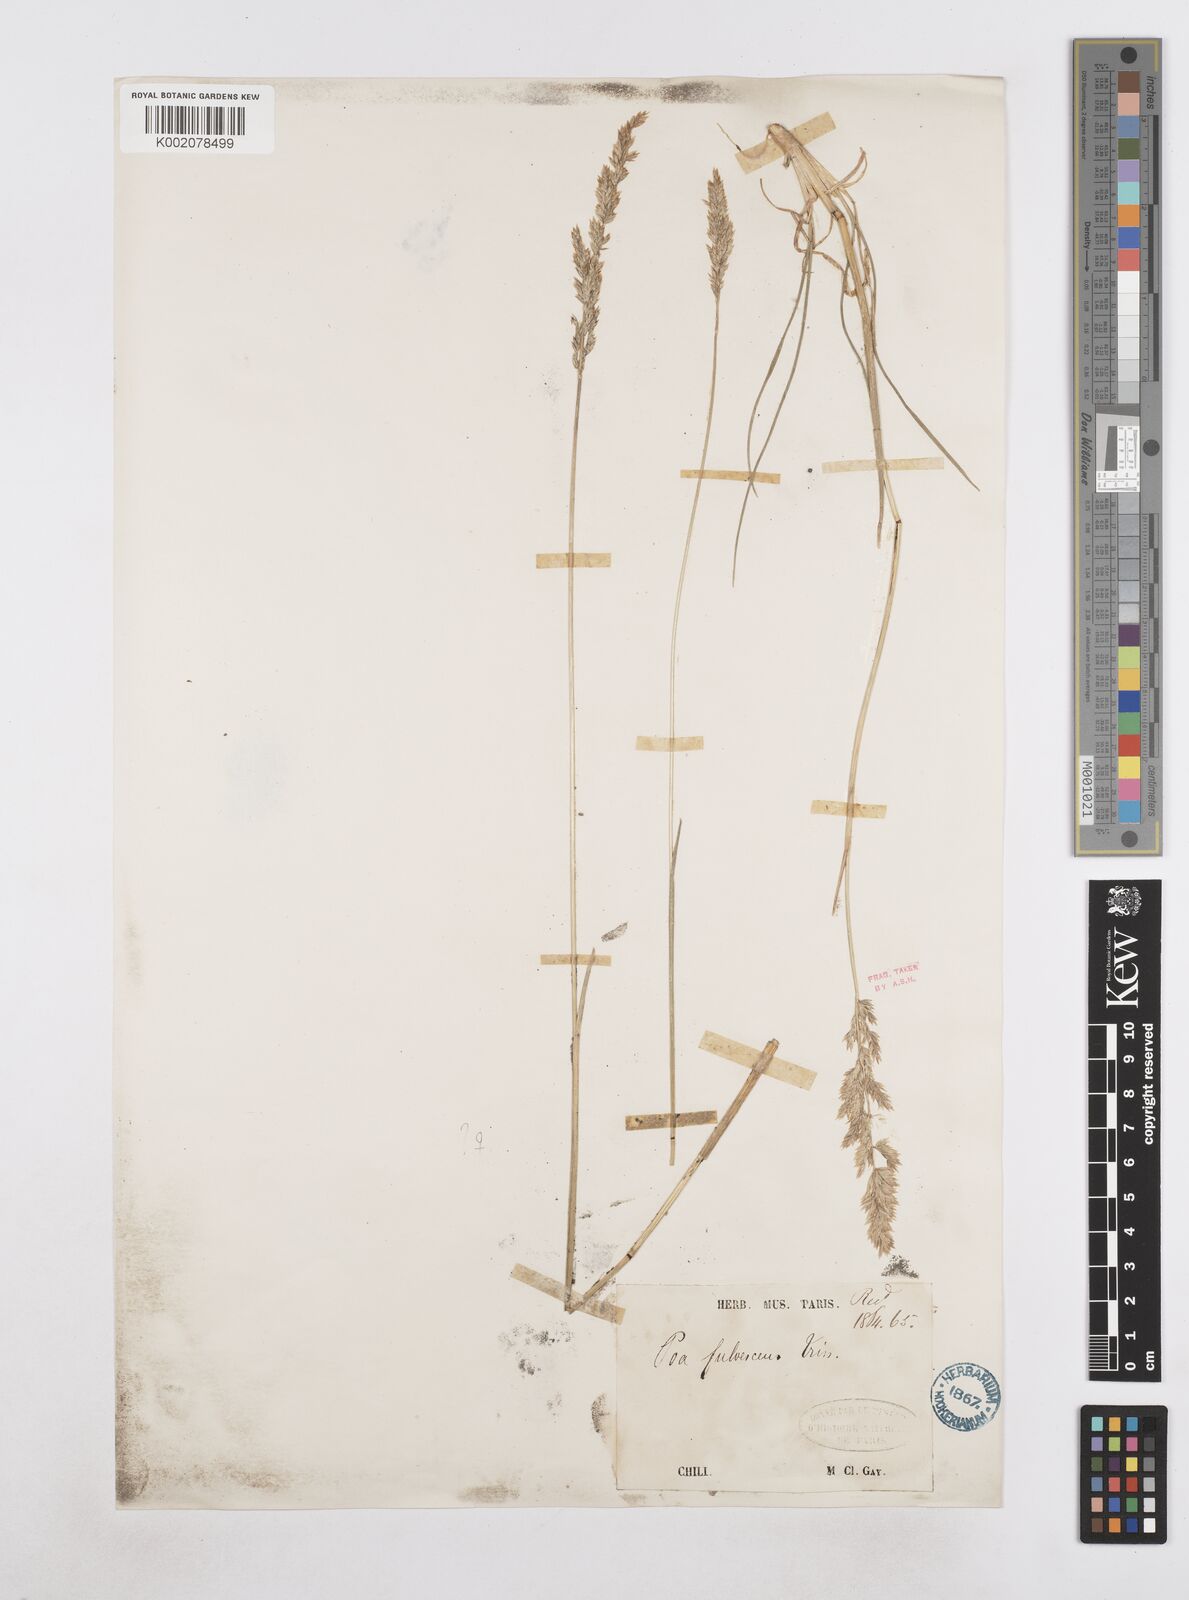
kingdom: Plantae
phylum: Tracheophyta
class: Liliopsida
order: Poales
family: Poaceae
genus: Poa
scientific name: Poa gayana
